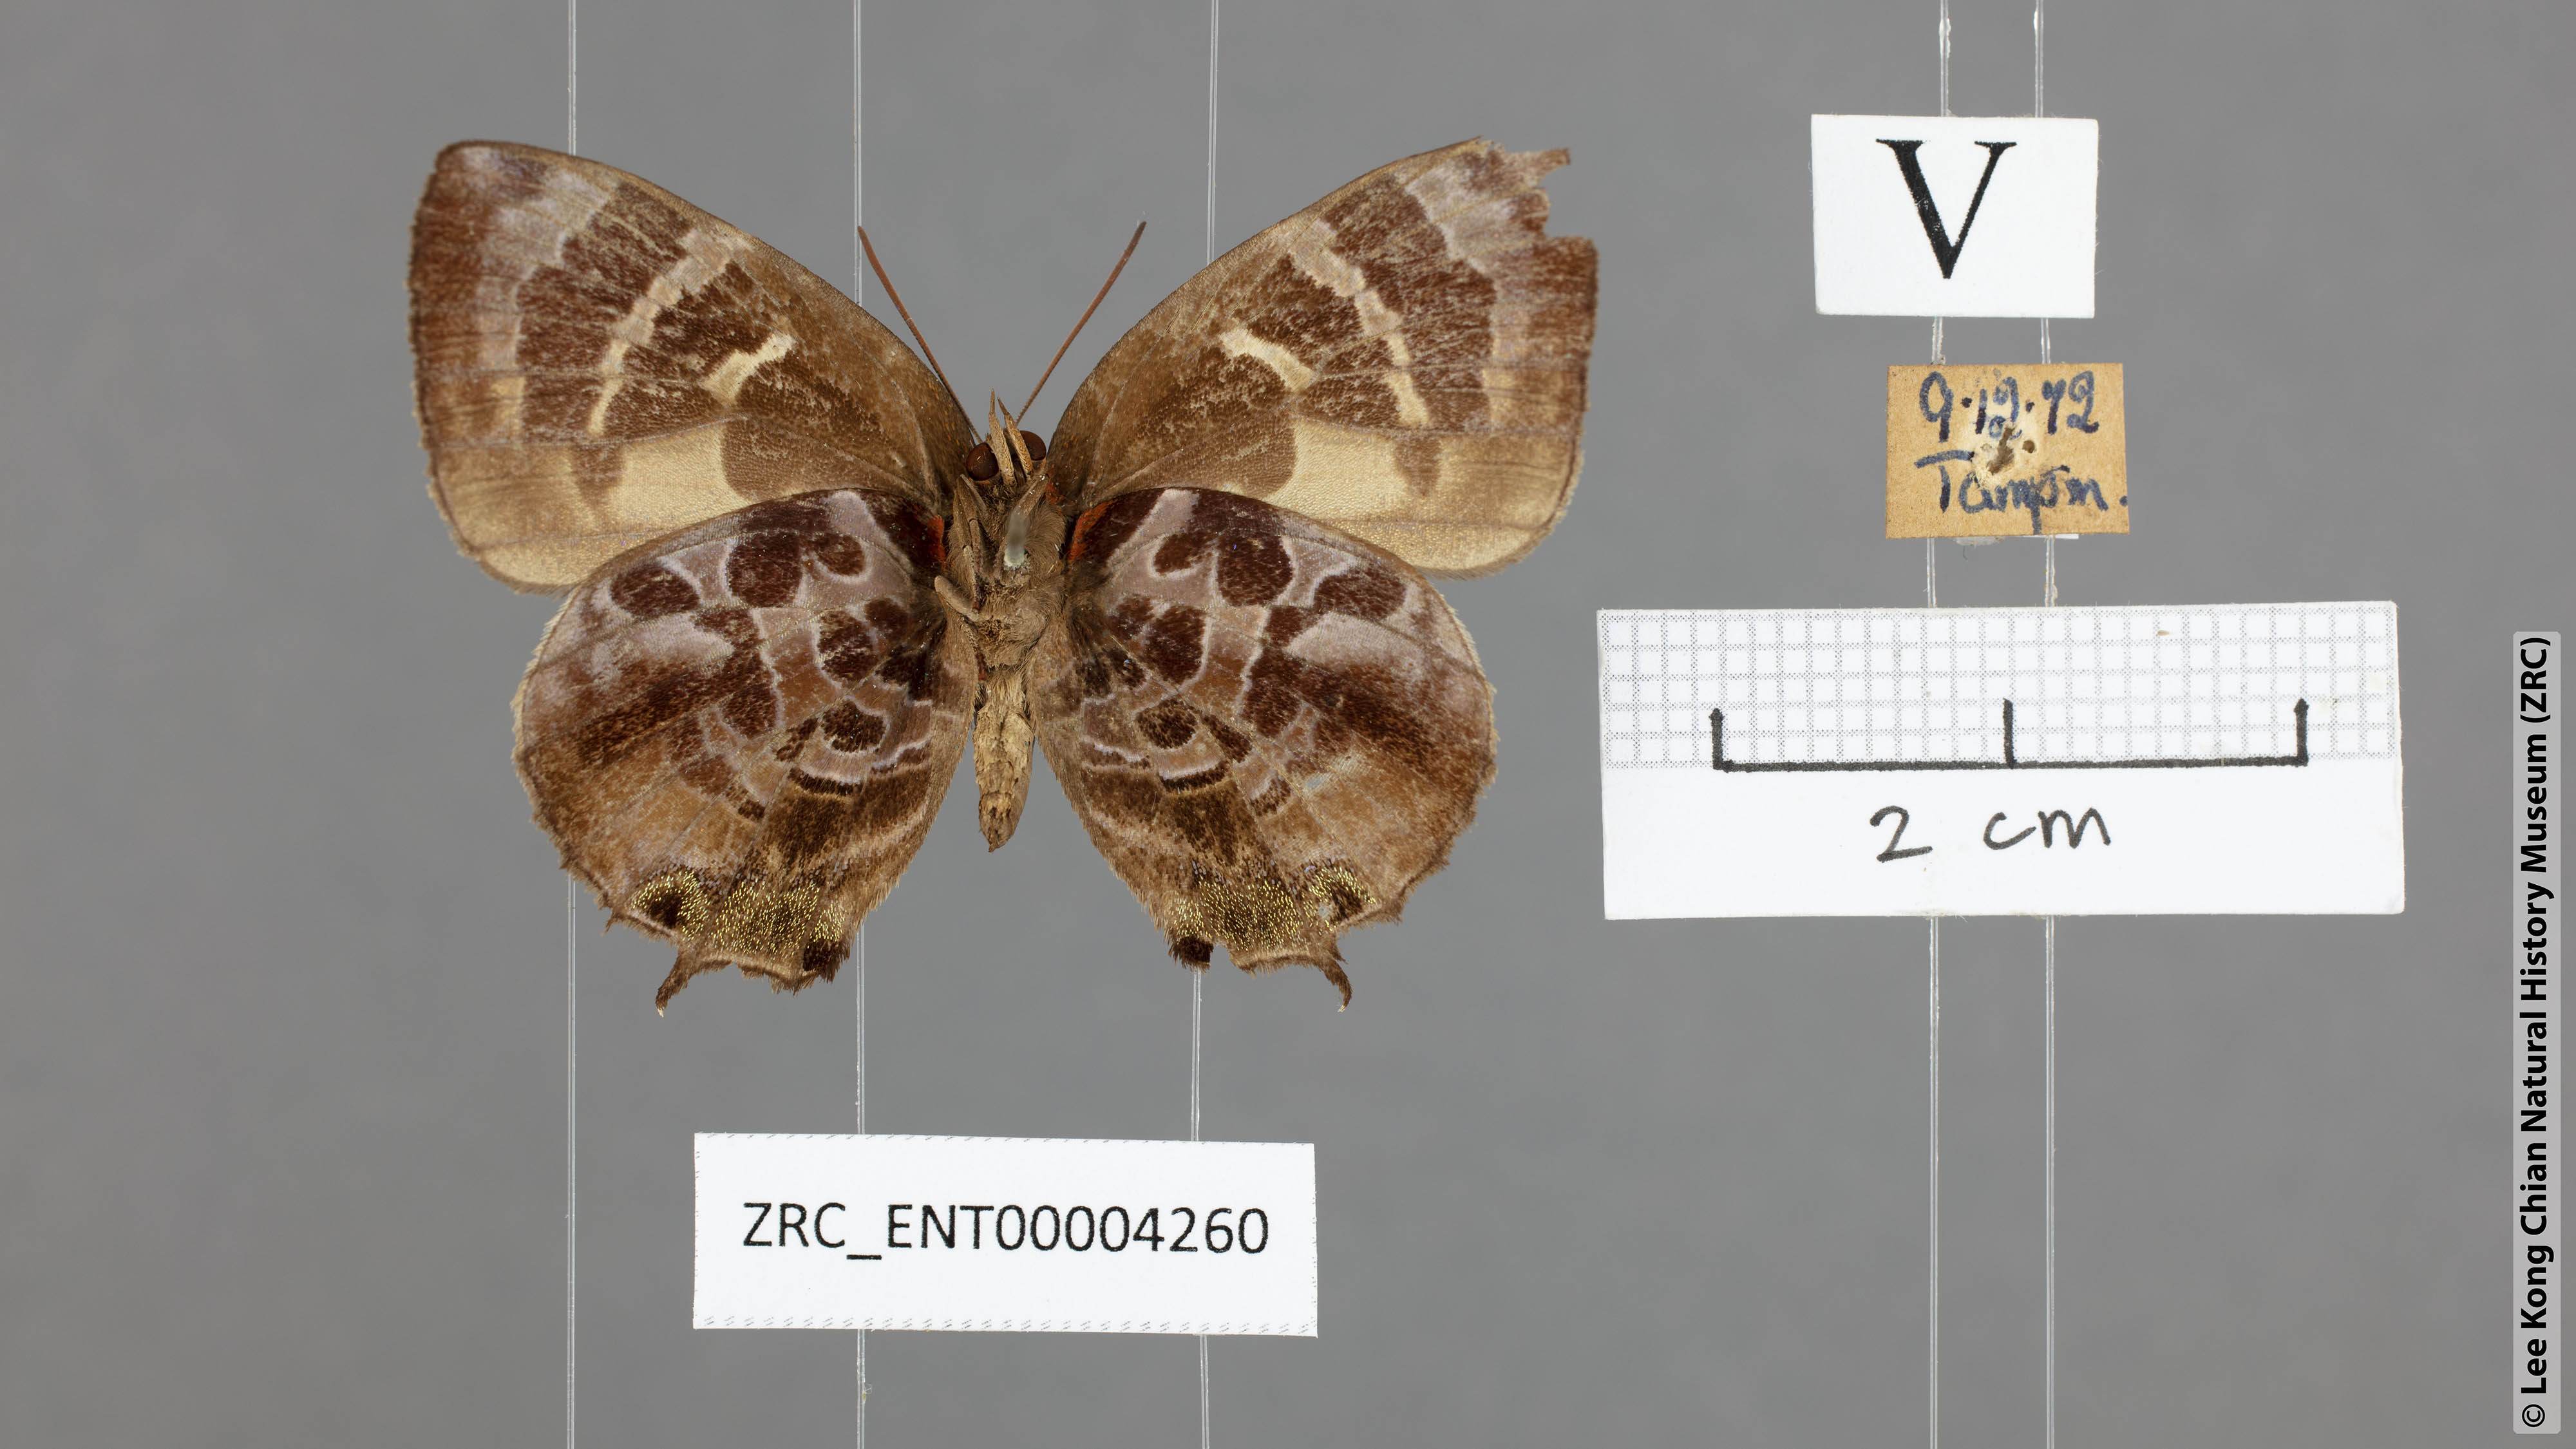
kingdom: Animalia
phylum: Arthropoda
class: Insecta
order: Lepidoptera
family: Lycaenidae
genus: Flos
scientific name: Flos
